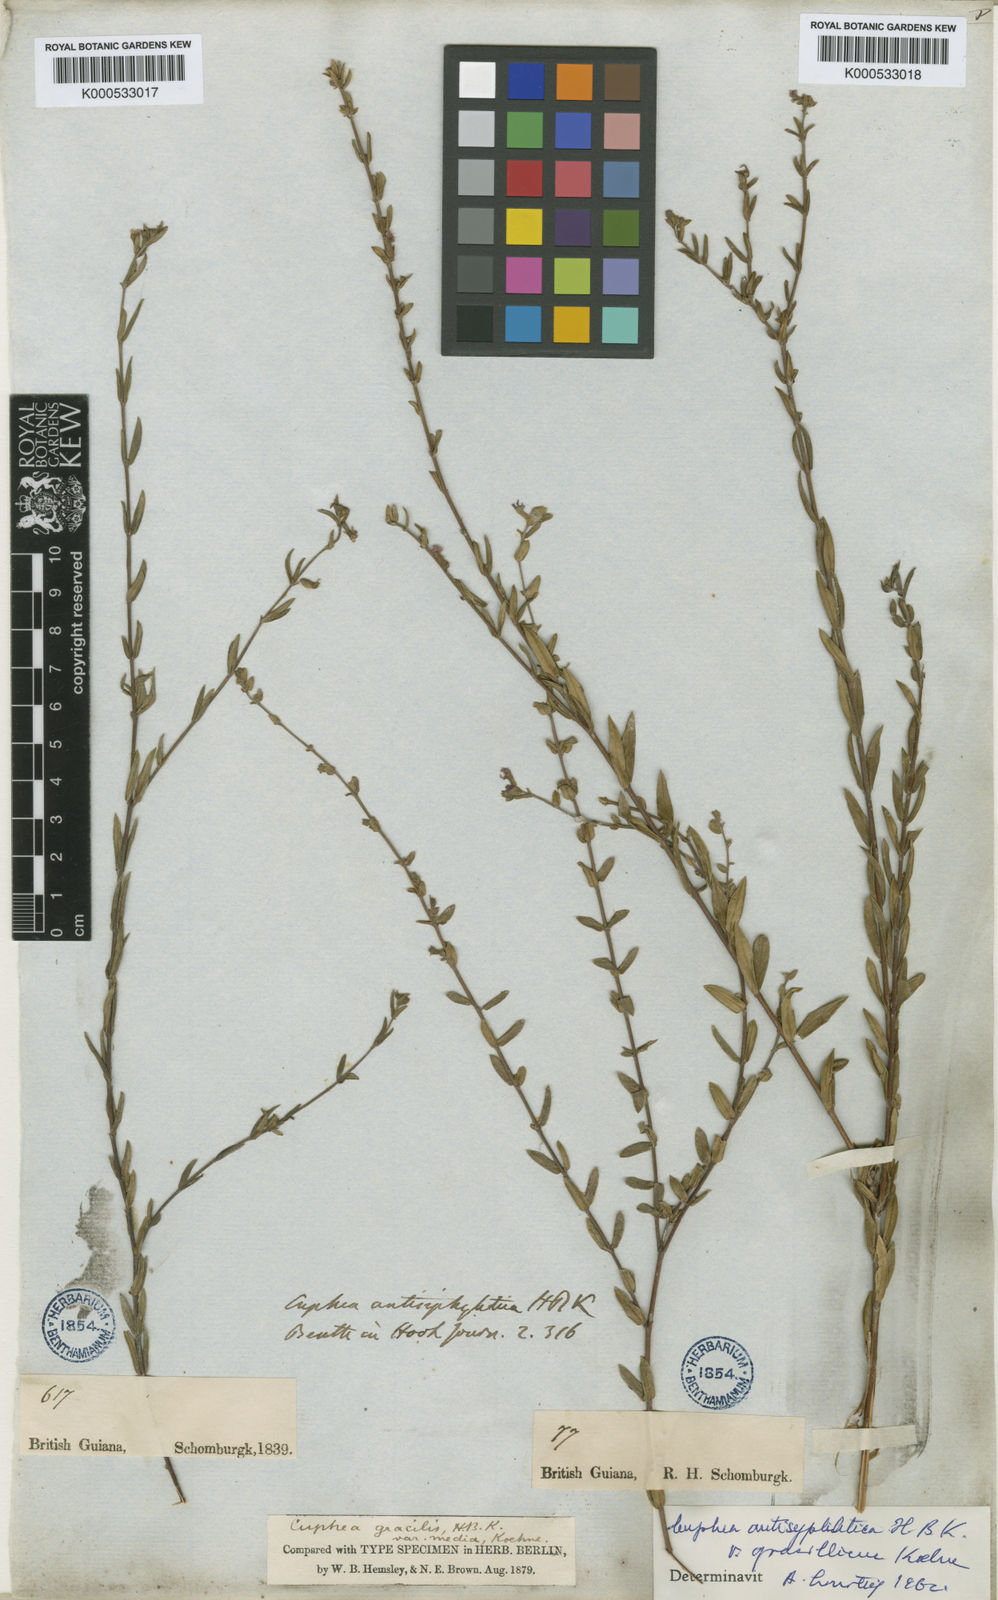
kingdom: Plantae
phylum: Tracheophyta
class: Magnoliopsida
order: Myrtales
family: Lythraceae
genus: Cuphea
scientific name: Cuphea antisyphilitica
